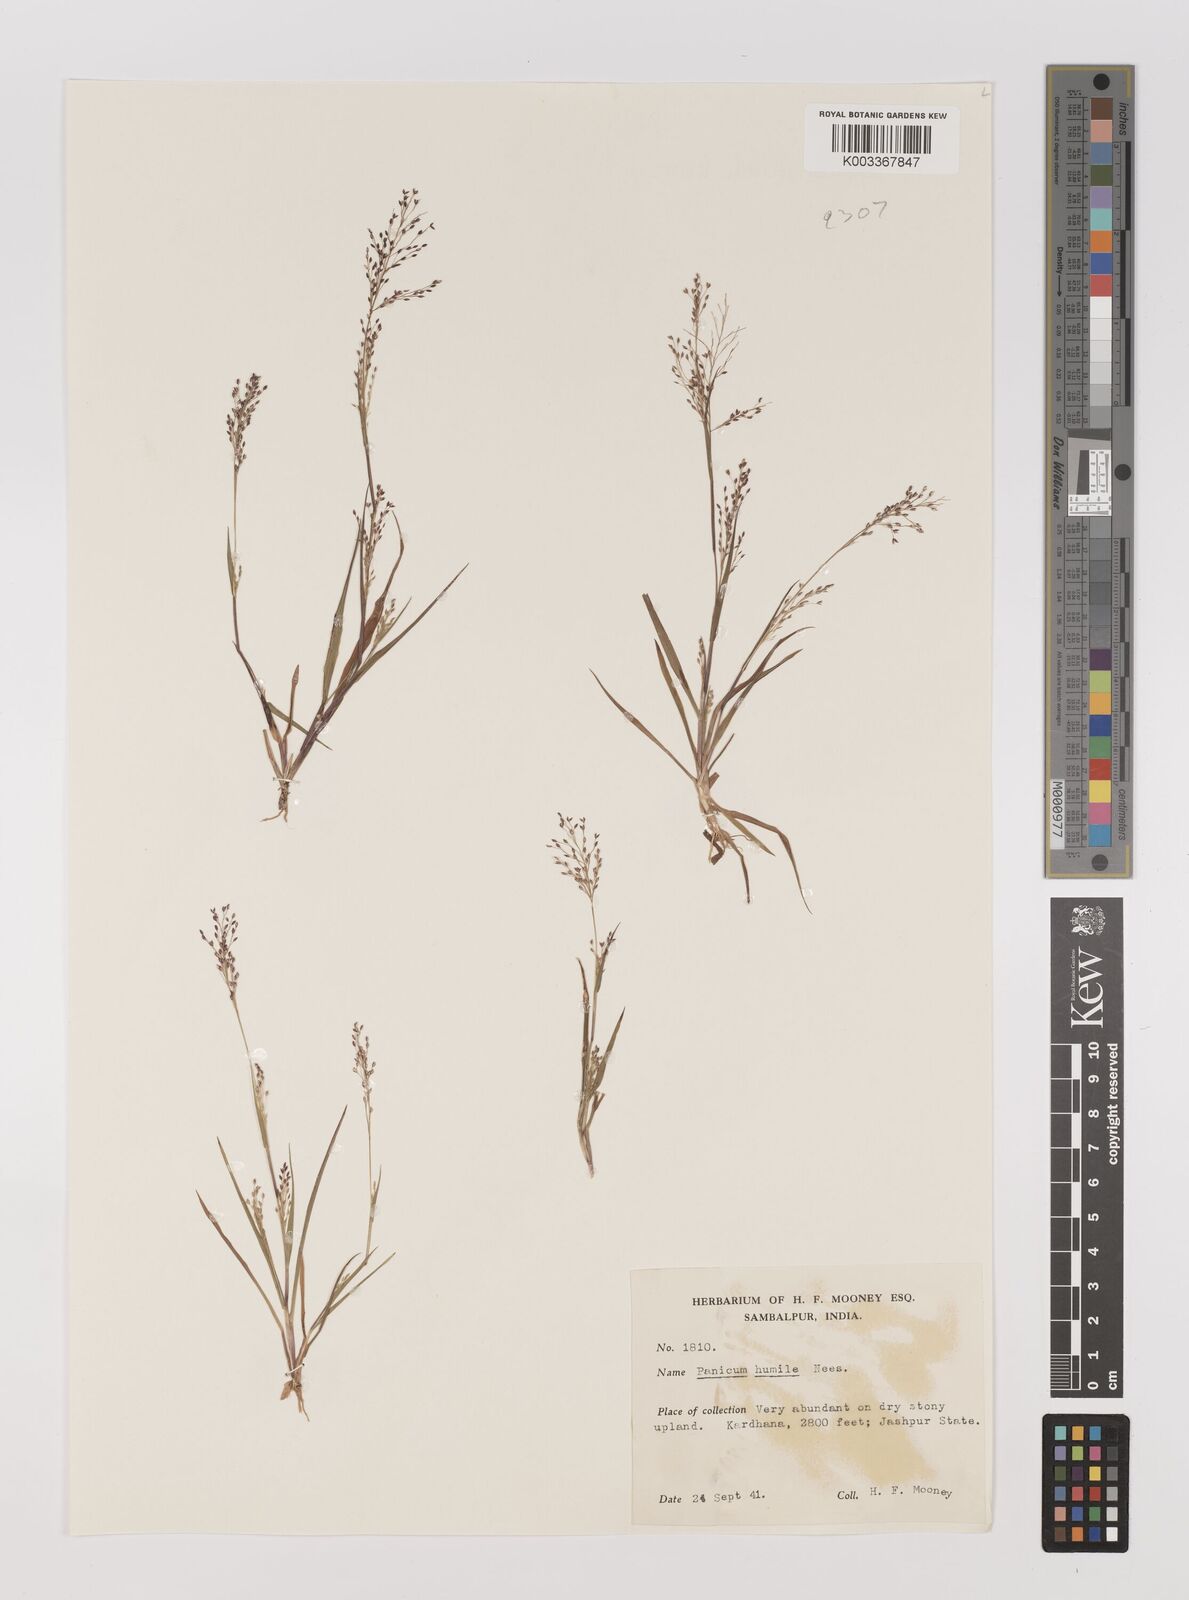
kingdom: Plantae
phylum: Tracheophyta
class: Liliopsida
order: Poales
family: Poaceae
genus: Panicum
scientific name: Panicum humile
